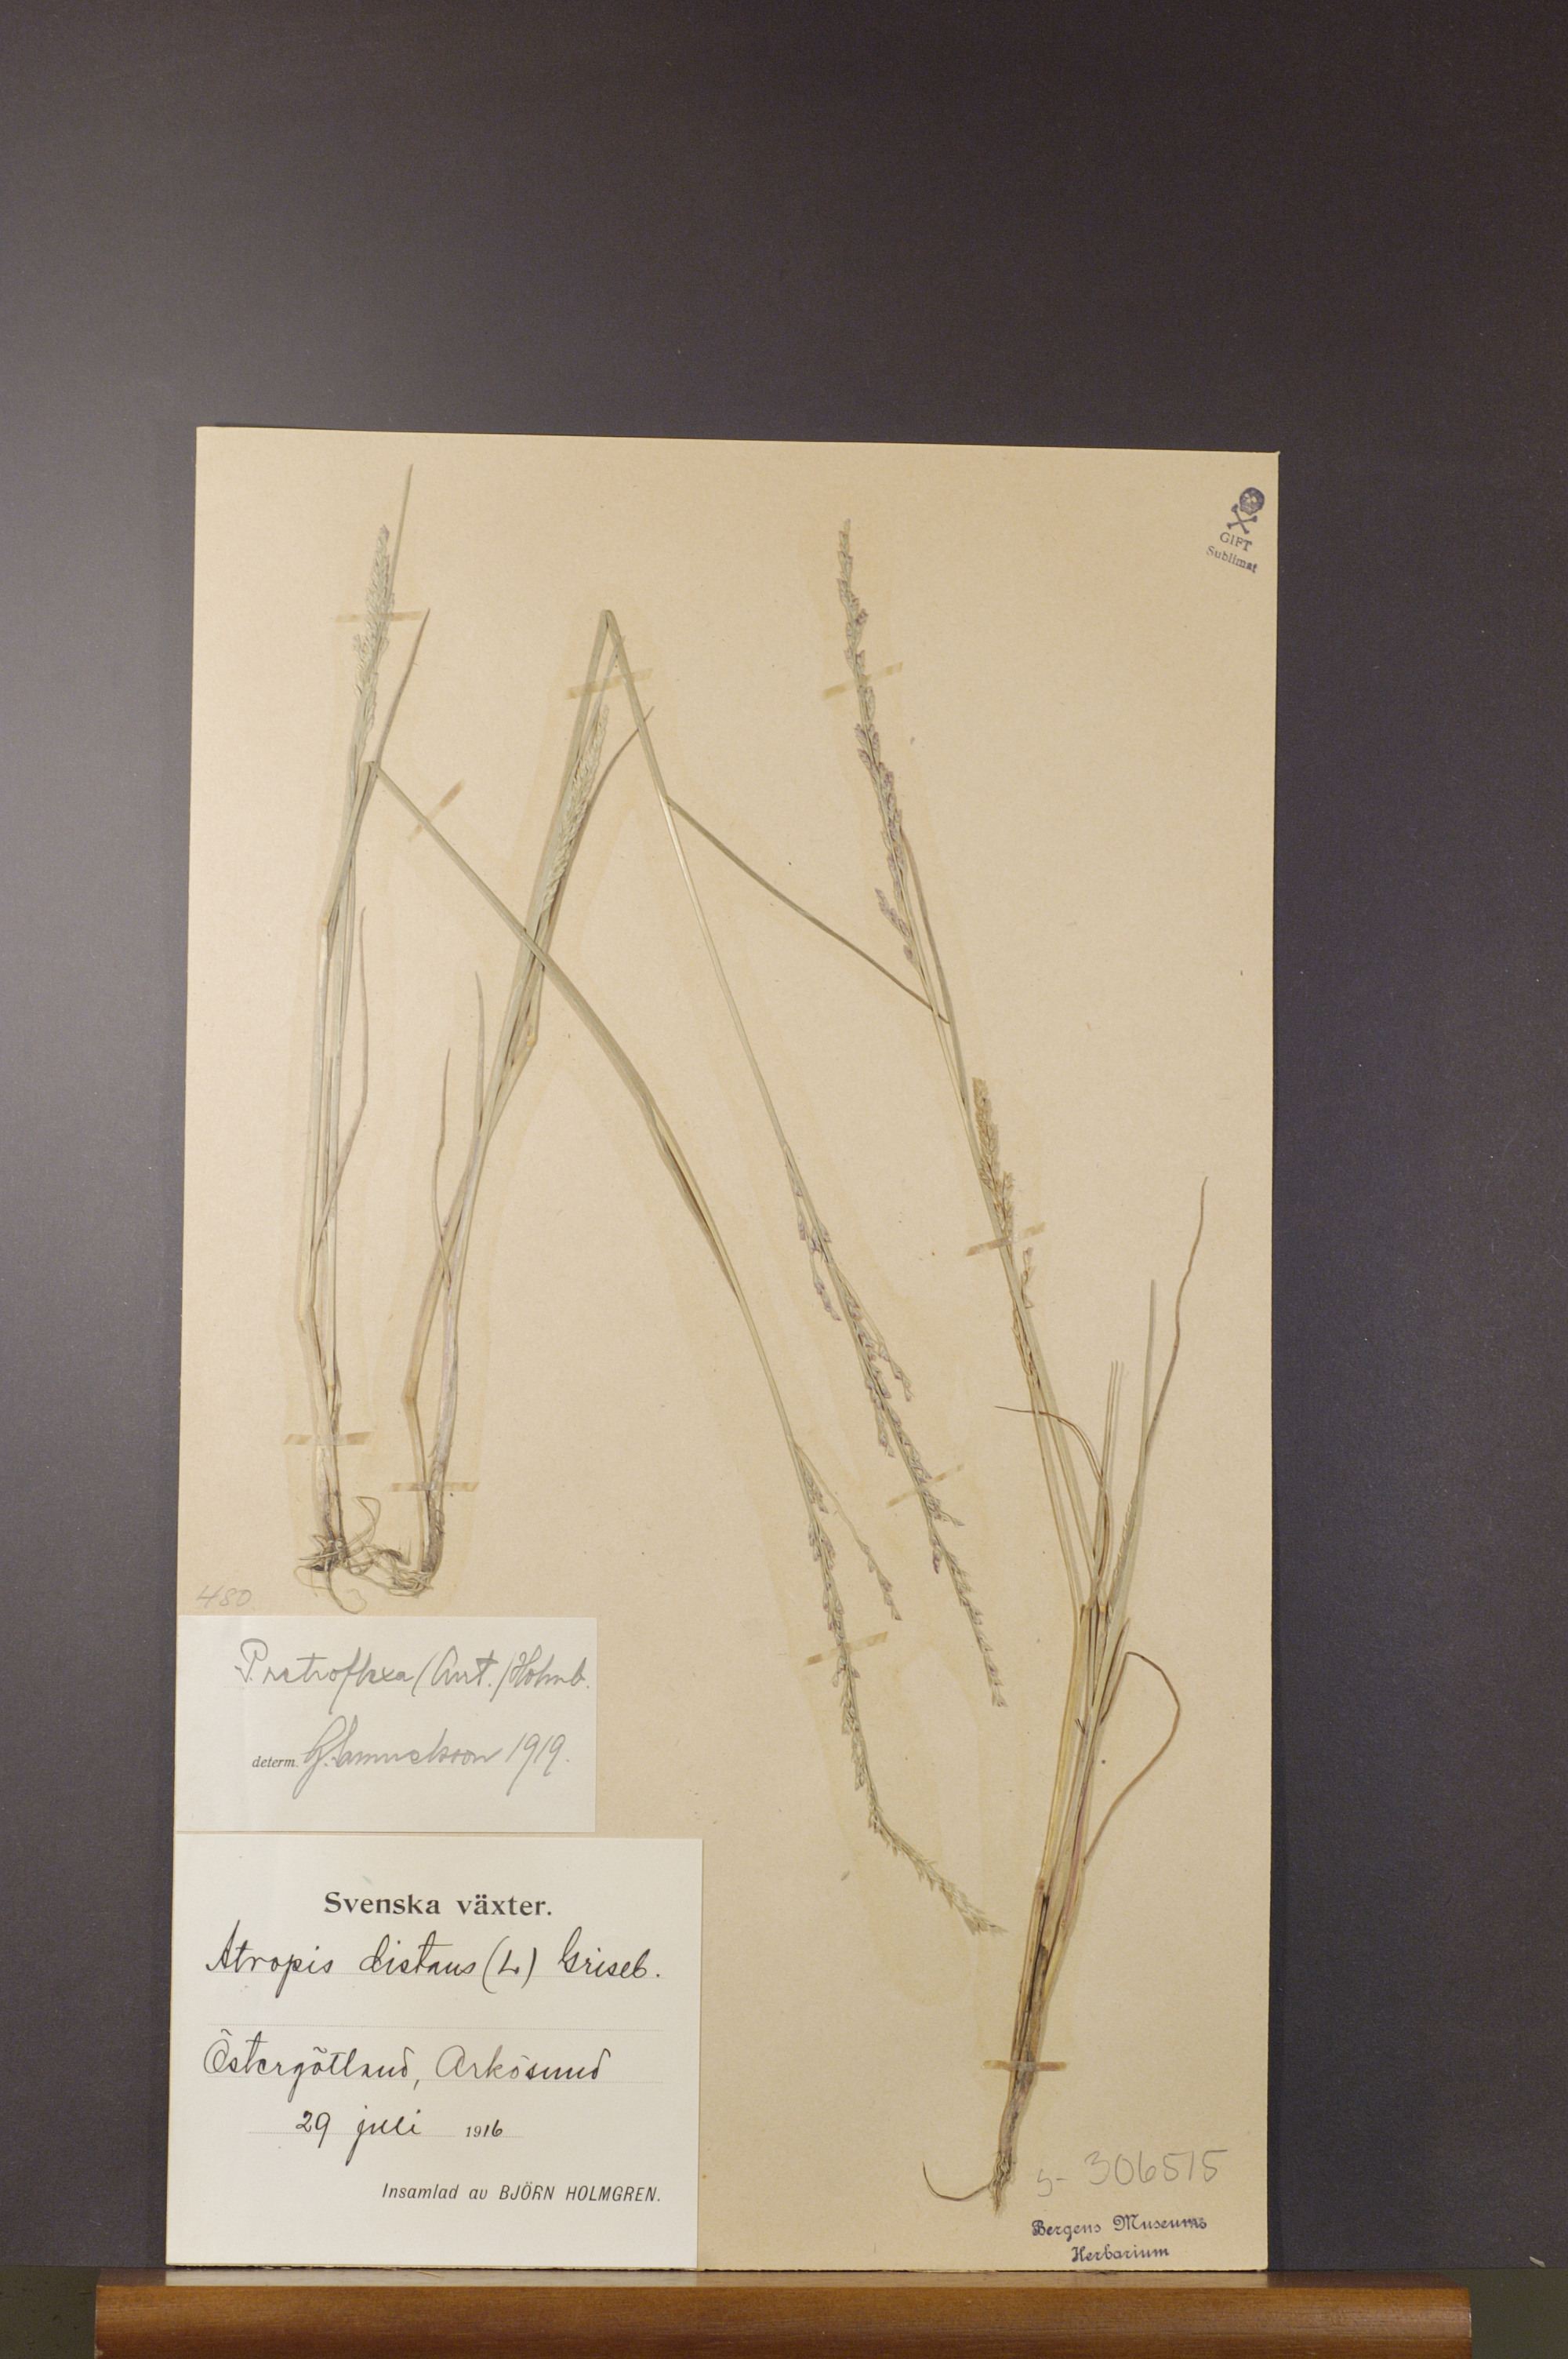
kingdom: Plantae
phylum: Tracheophyta
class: Liliopsida
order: Poales
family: Poaceae
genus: Puccinellia
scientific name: Puccinellia distans
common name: Weeping alkaligrass
